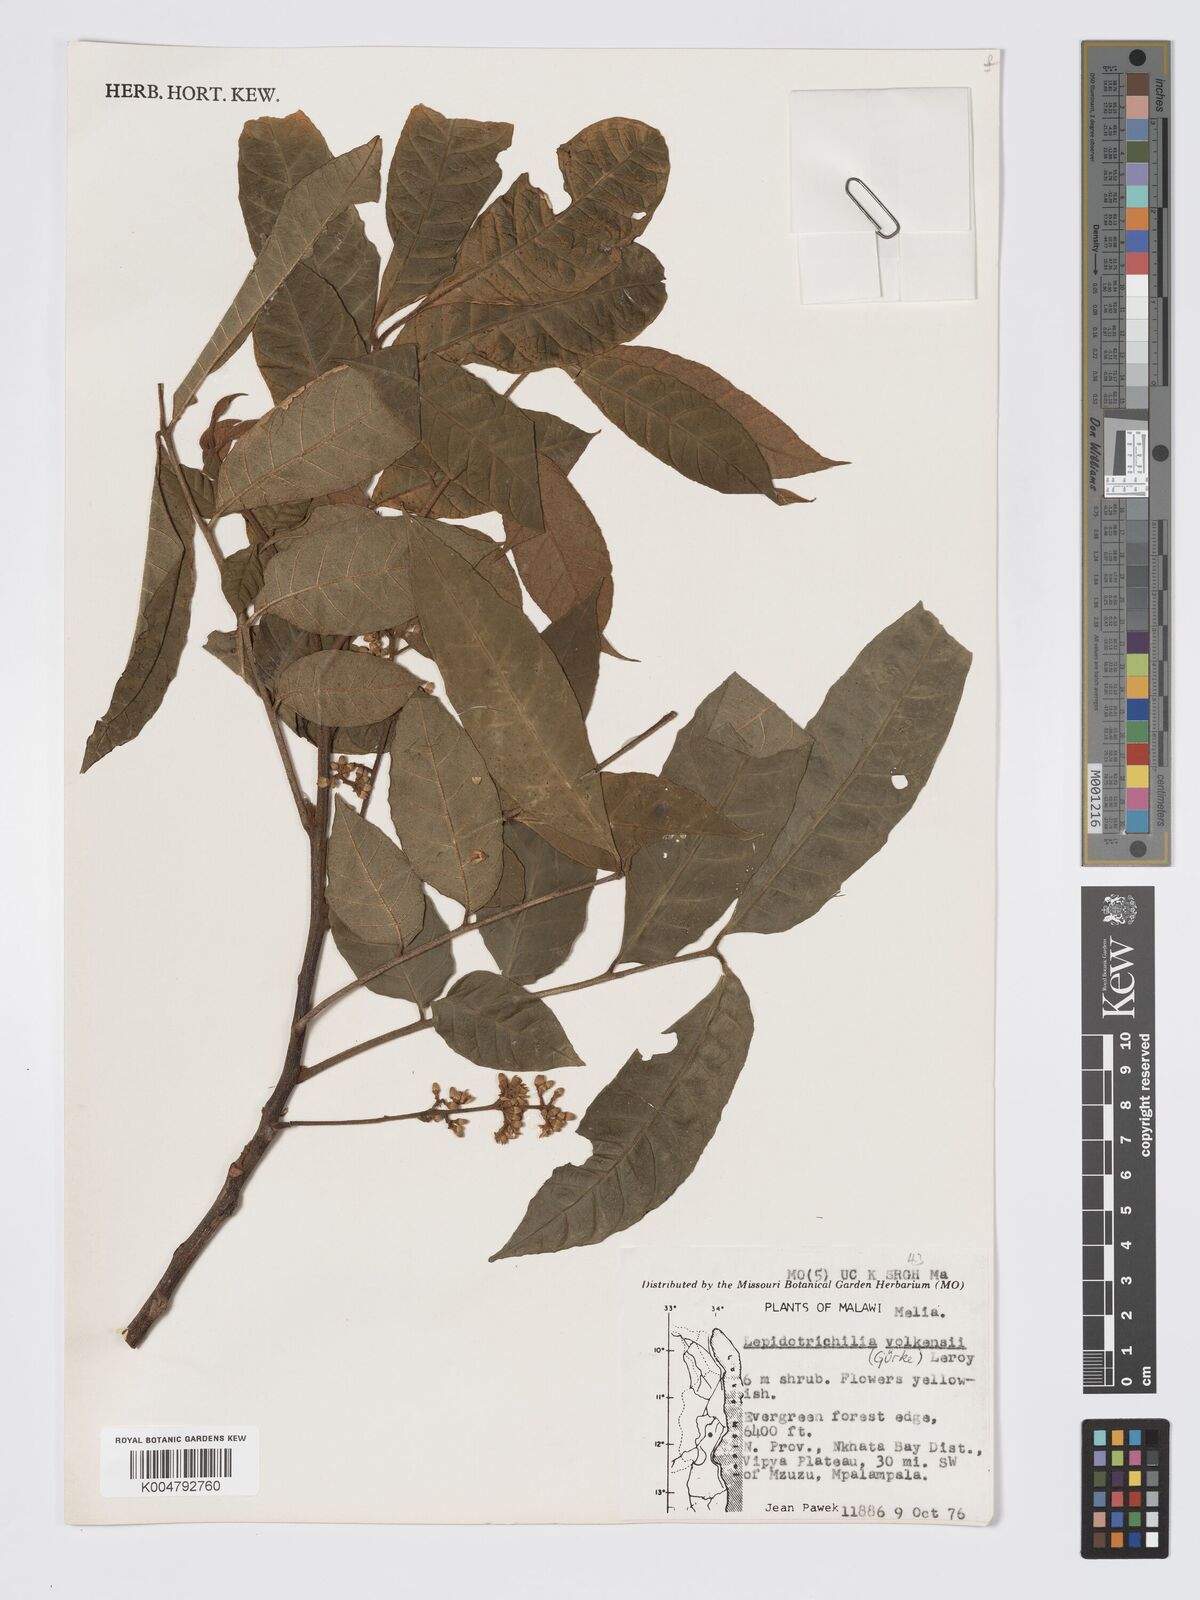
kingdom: Plantae
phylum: Tracheophyta
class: Magnoliopsida
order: Sapindales
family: Meliaceae
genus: Lepidotrichilia
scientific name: Lepidotrichilia volkensii
